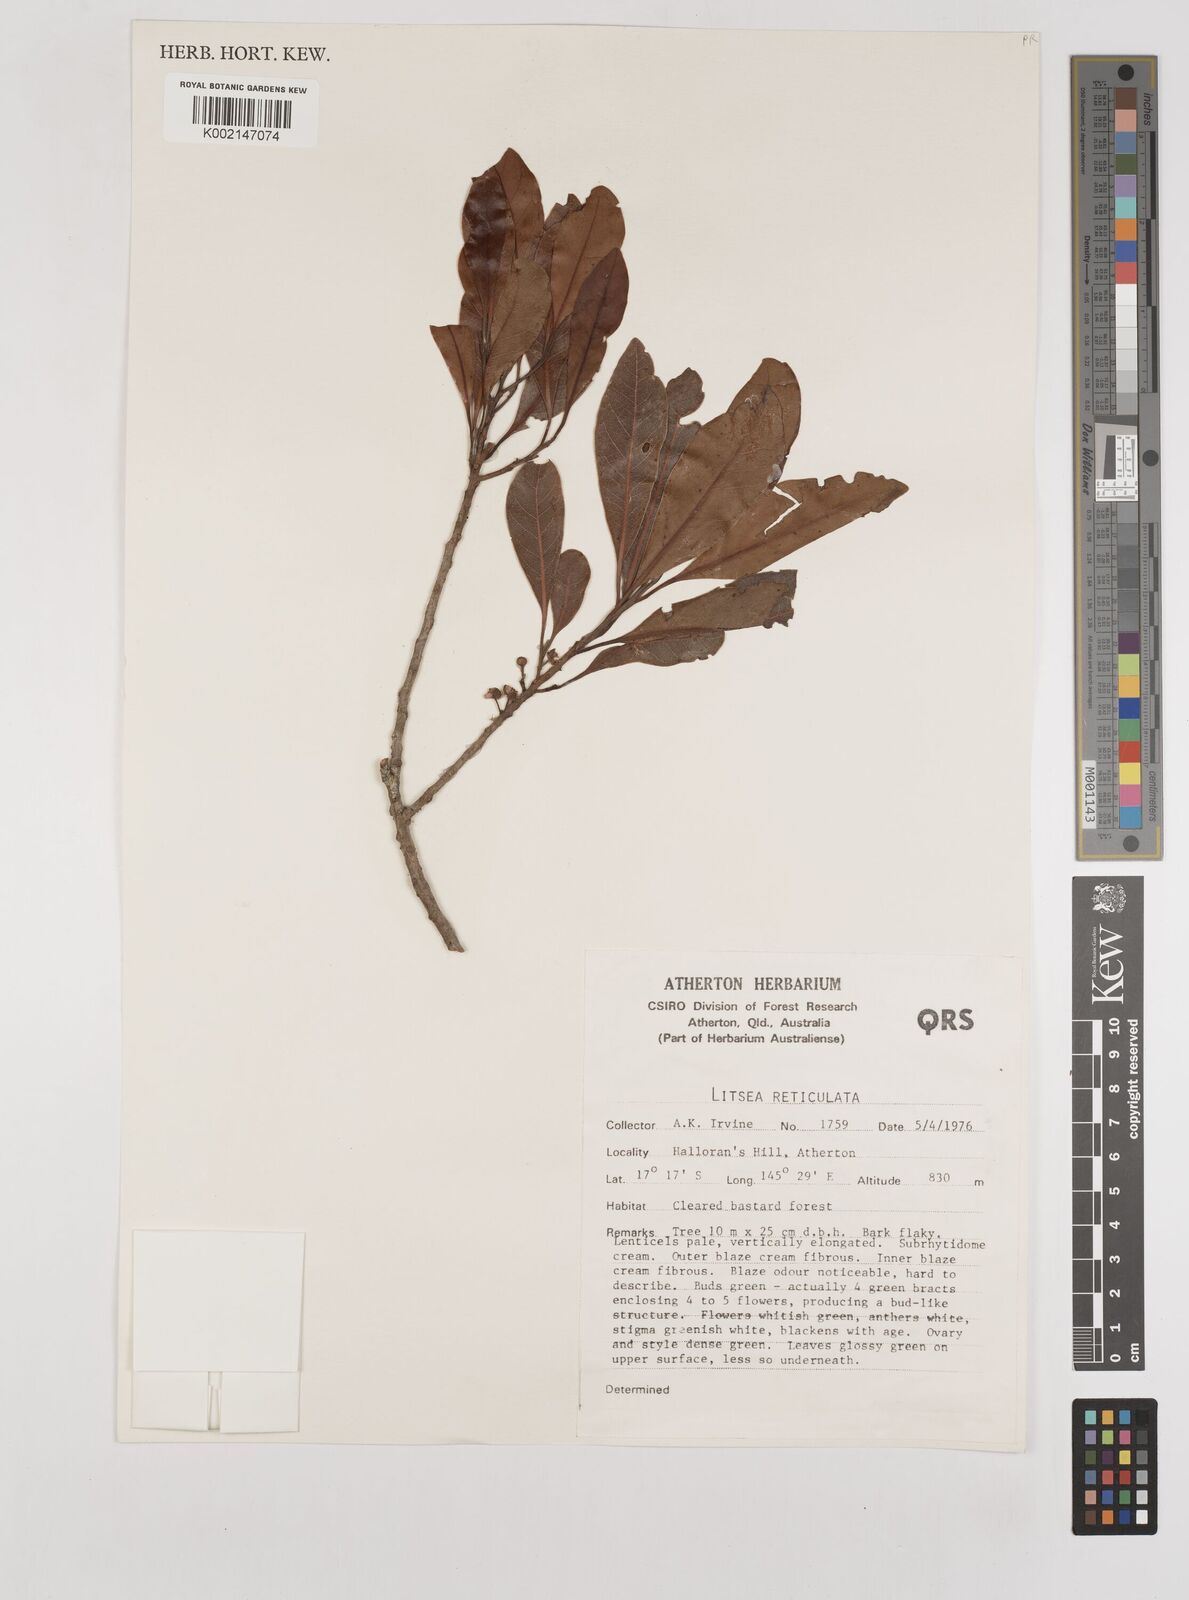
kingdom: Plantae
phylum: Tracheophyta
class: Magnoliopsida
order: Laurales
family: Lauraceae
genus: Litsea
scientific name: Litsea reticulata
